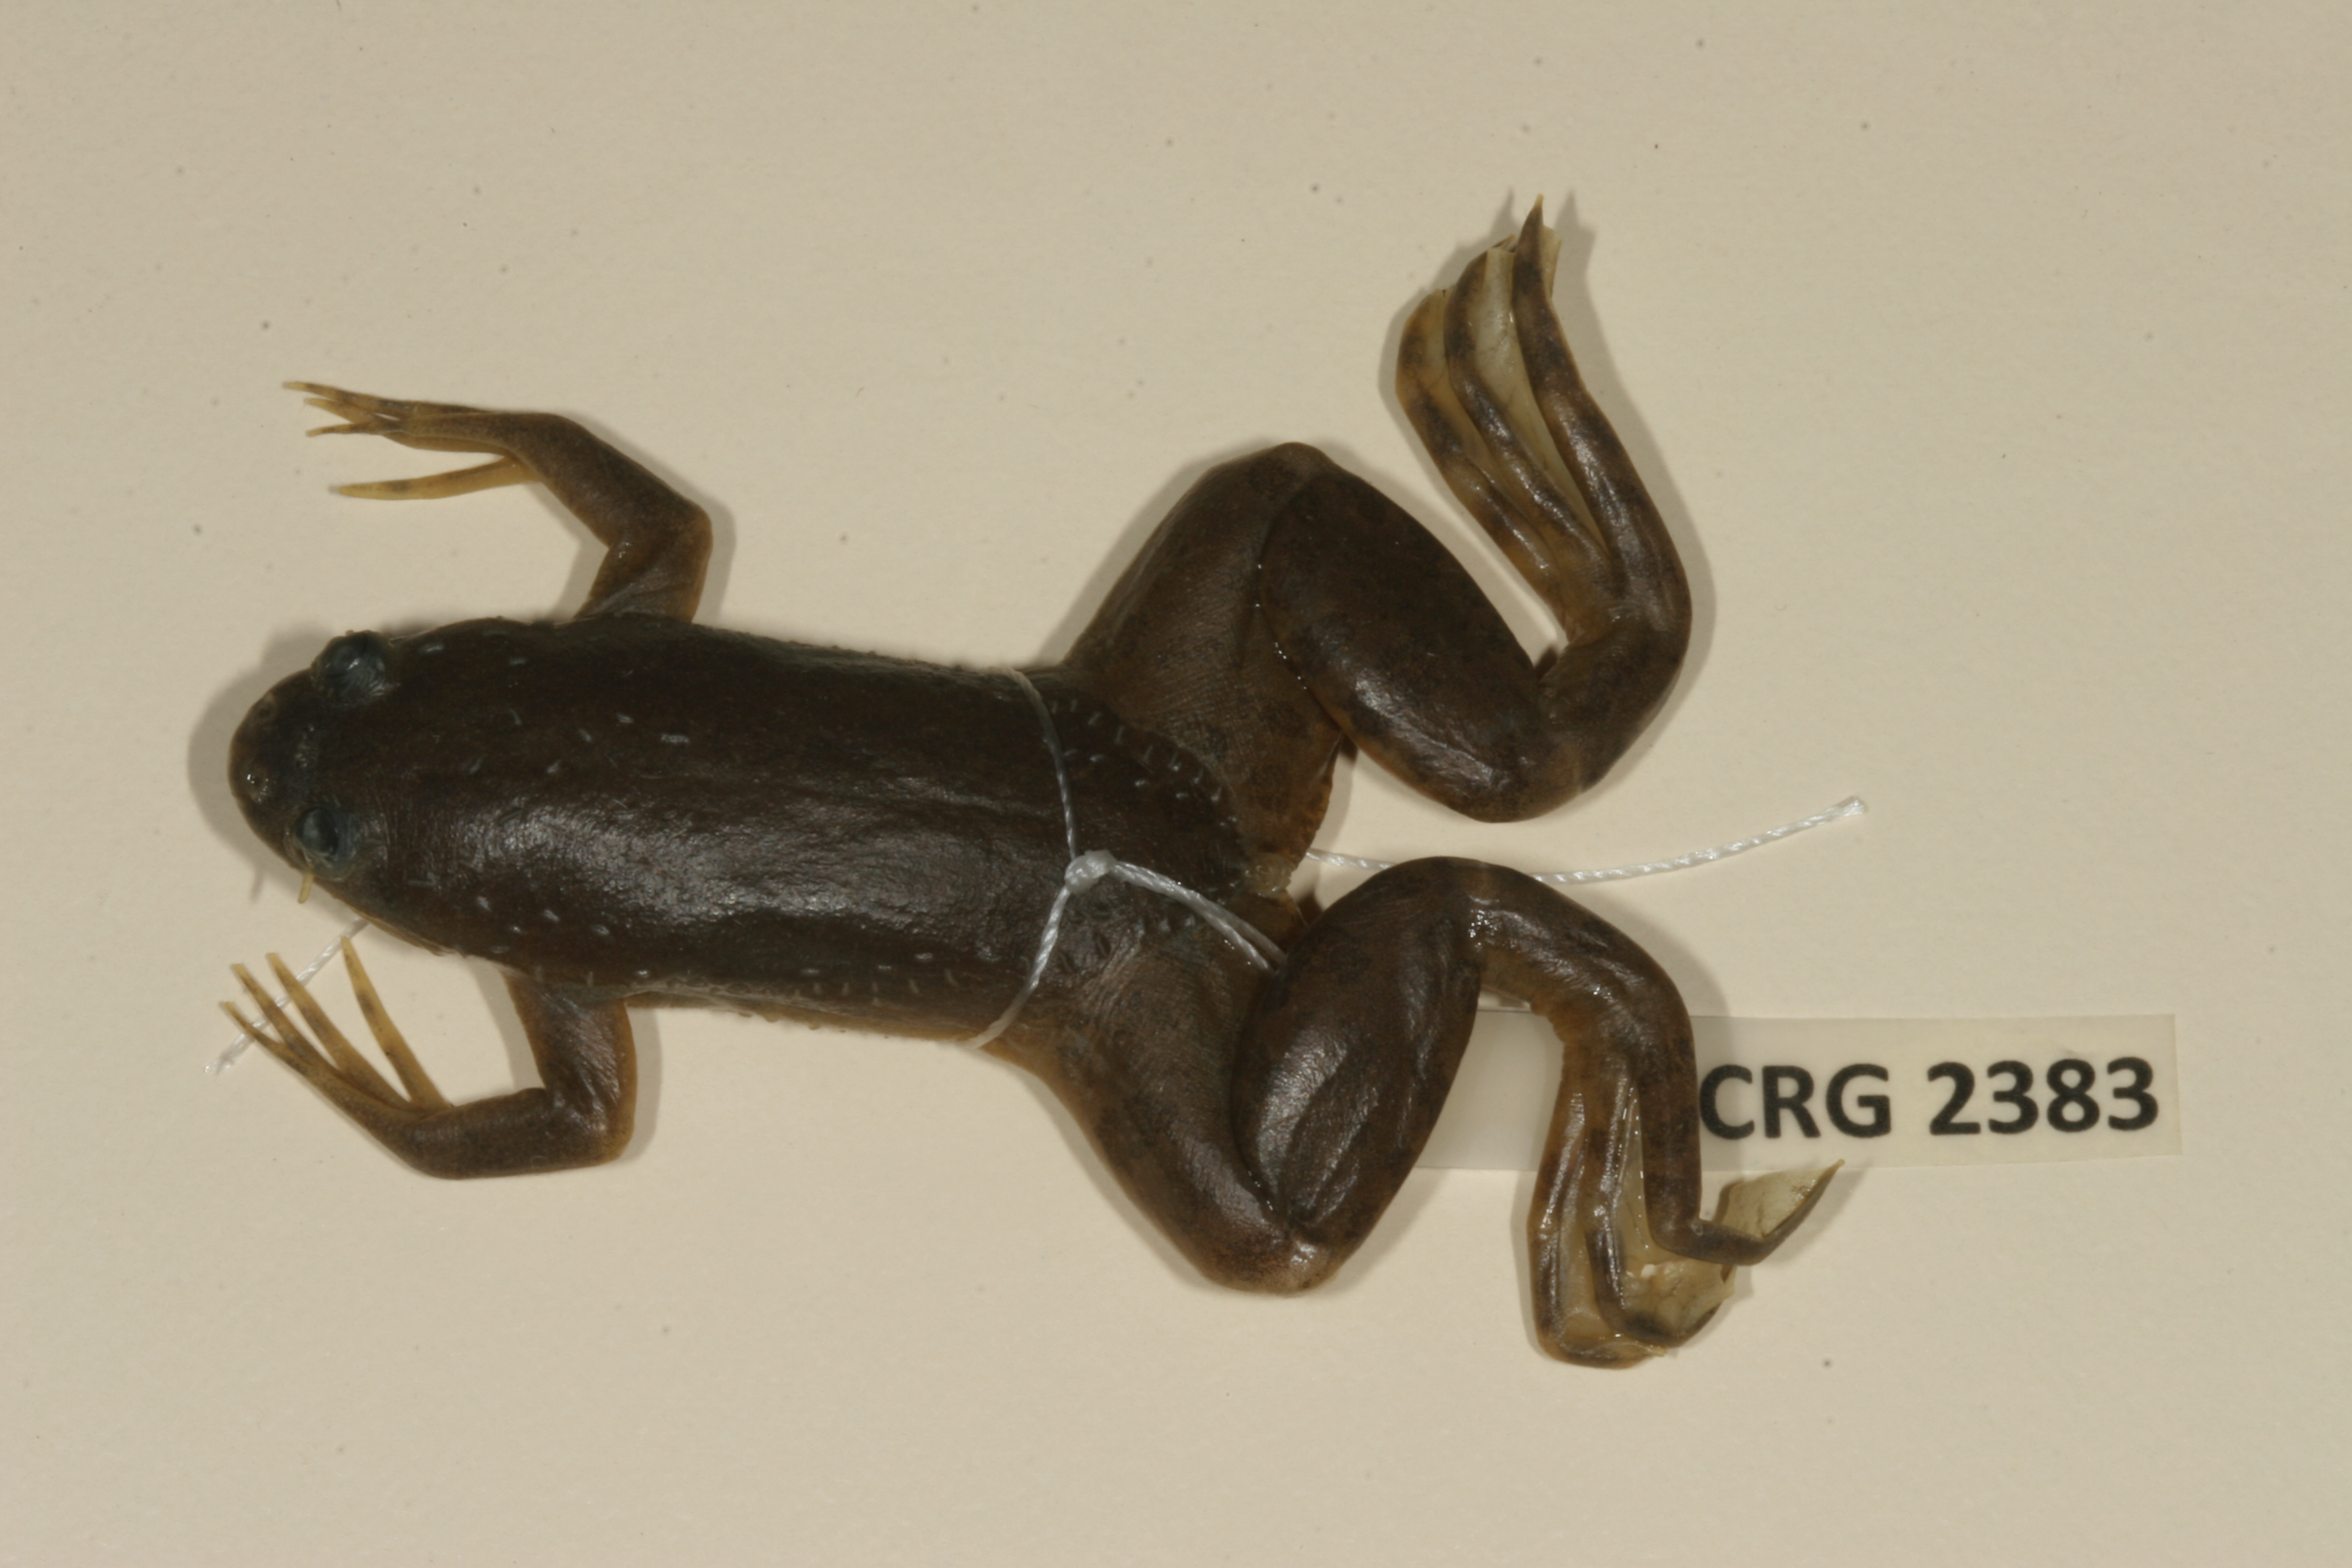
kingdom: Animalia
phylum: Chordata
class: Amphibia
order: Anura
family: Pipidae
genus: Xenopus
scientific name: Xenopus muelleri
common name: Muller's clawed frog
